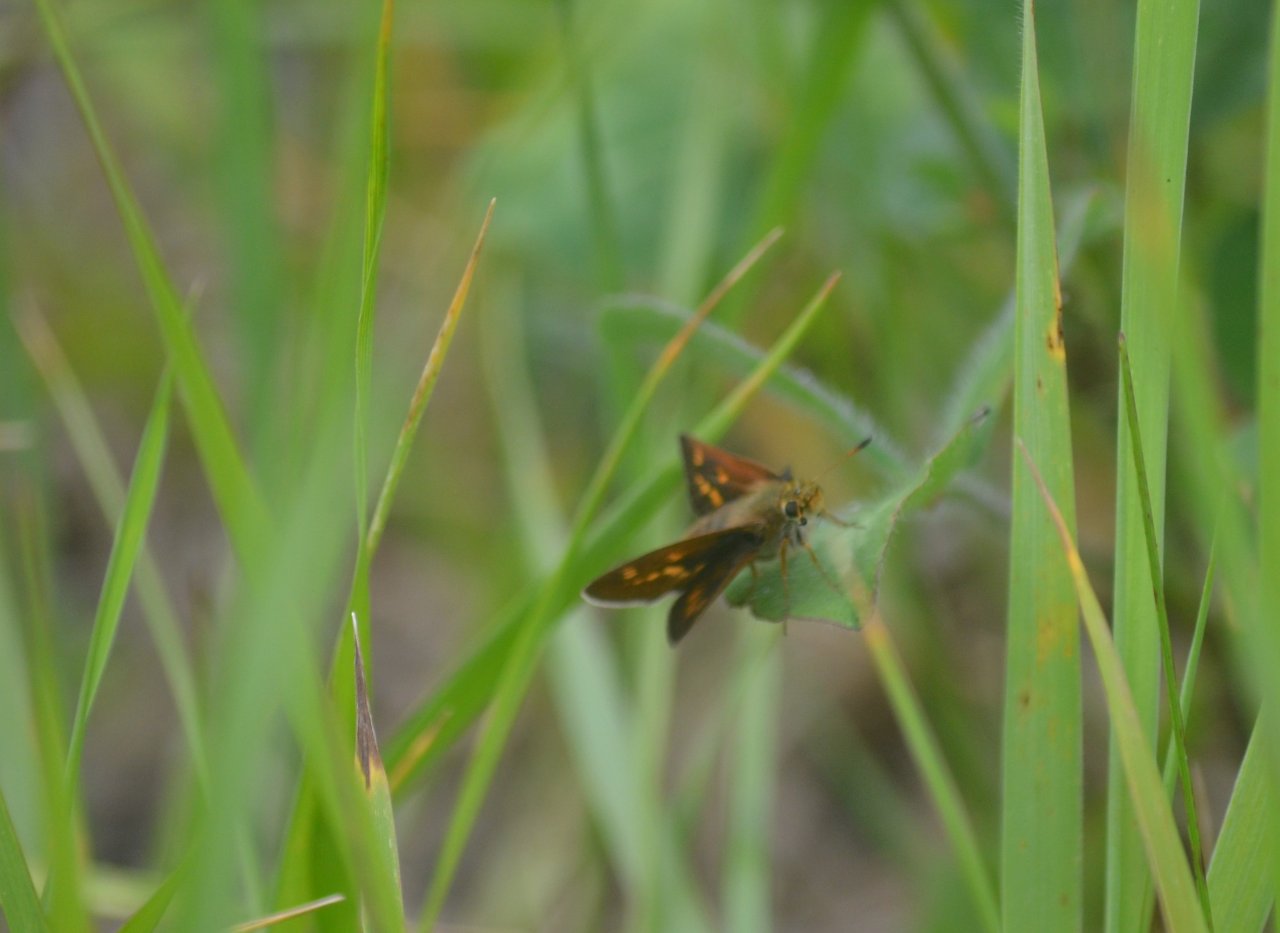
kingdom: Animalia
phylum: Arthropoda
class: Insecta
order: Lepidoptera
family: Hesperiidae
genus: Polites
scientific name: Polites
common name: Long Dash Skipper
